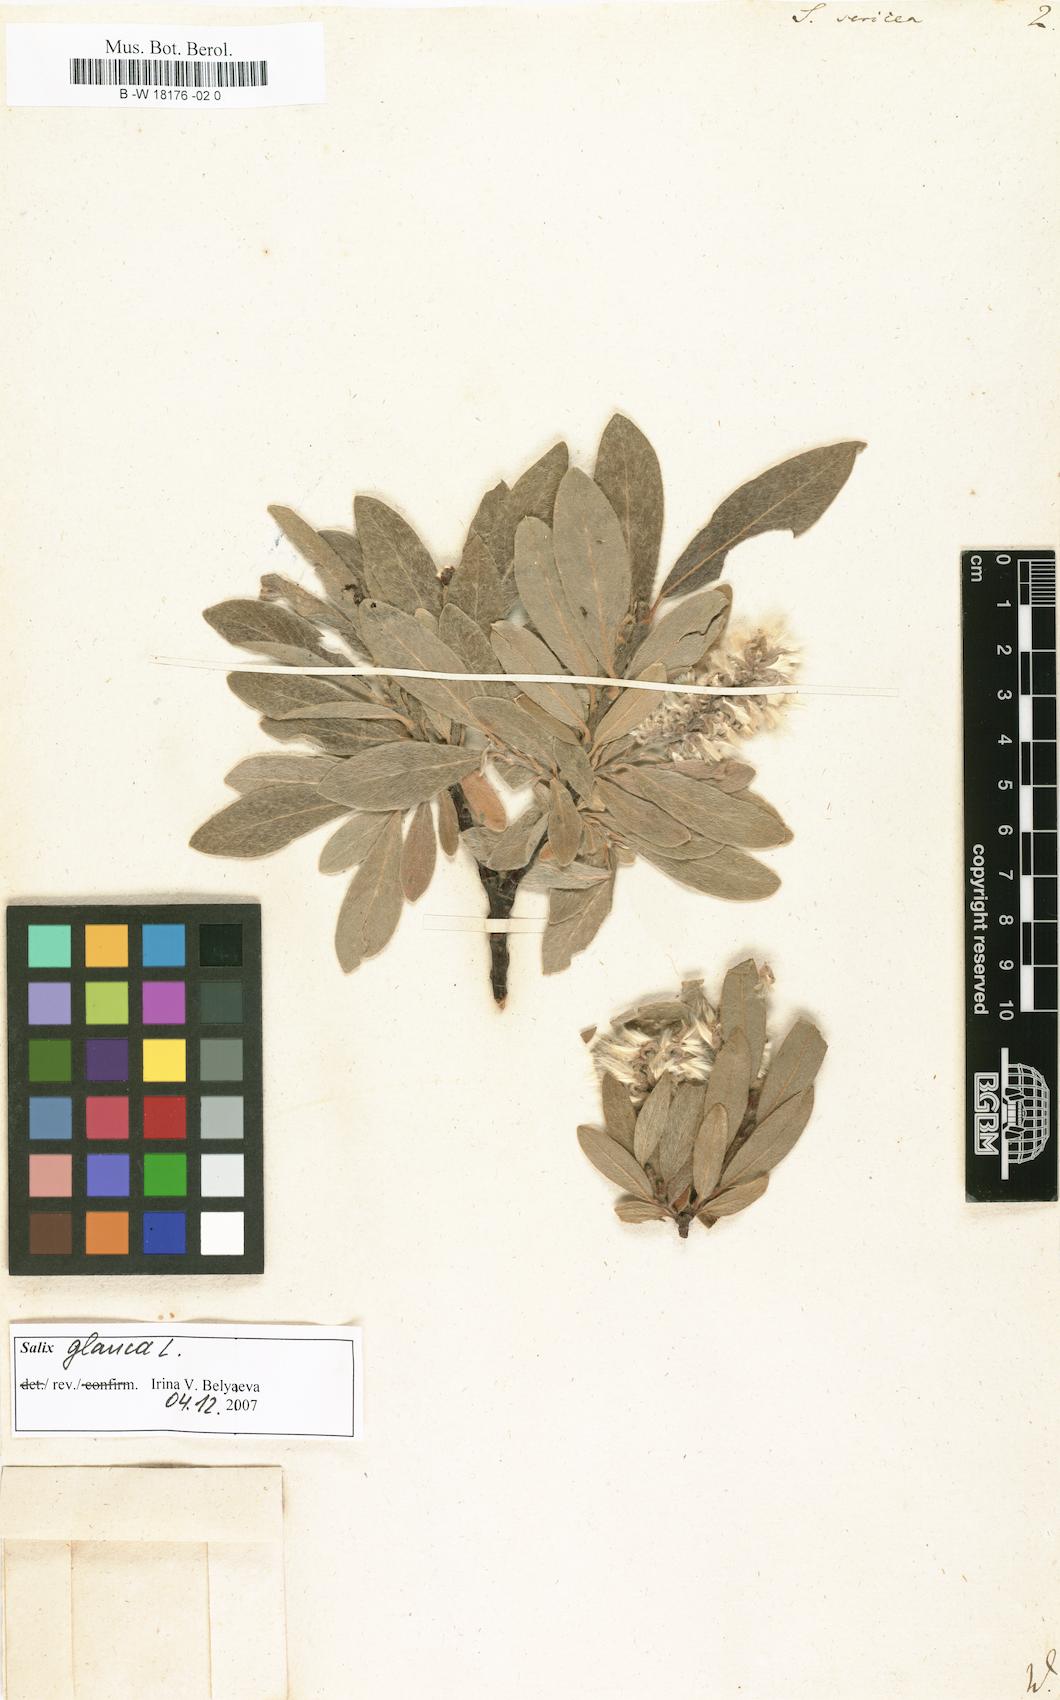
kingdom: Plantae
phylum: Tracheophyta
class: Magnoliopsida
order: Malpighiales
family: Salicaceae
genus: Salix
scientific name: Salix sericea
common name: Silky willow
